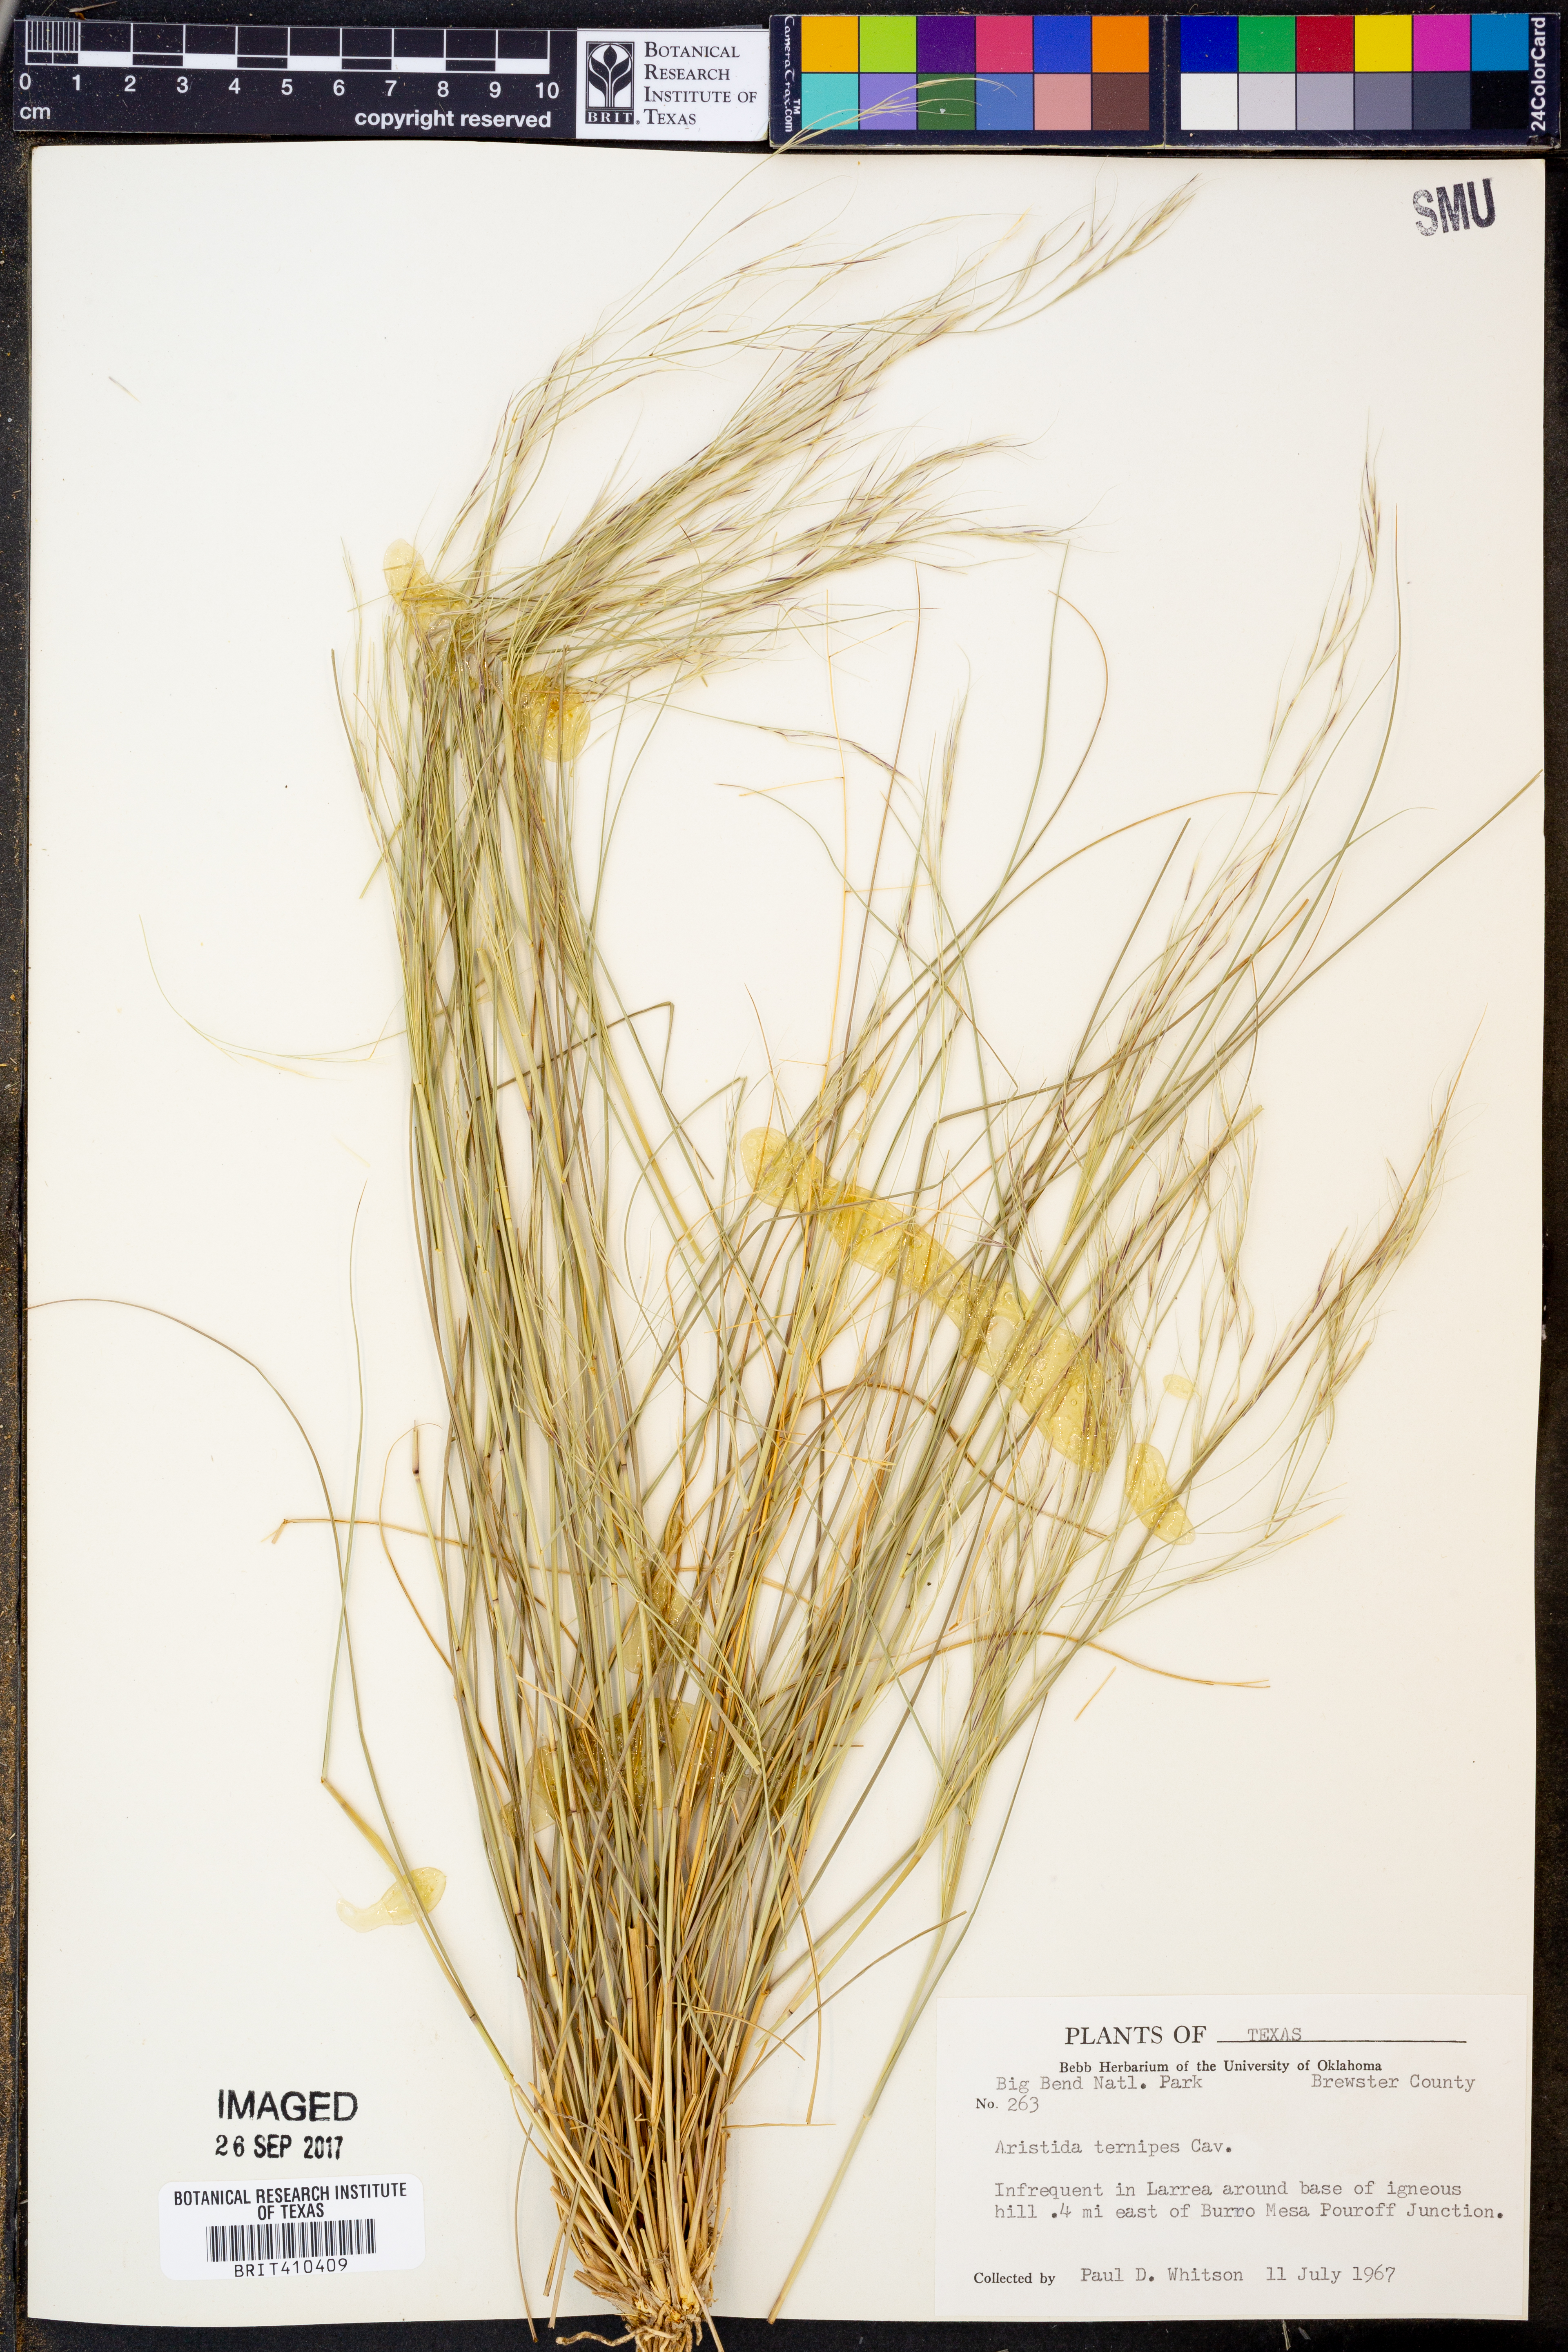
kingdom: Plantae
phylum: Tracheophyta
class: Liliopsida
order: Poales
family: Poaceae
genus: Aristida
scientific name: Aristida ternipes
